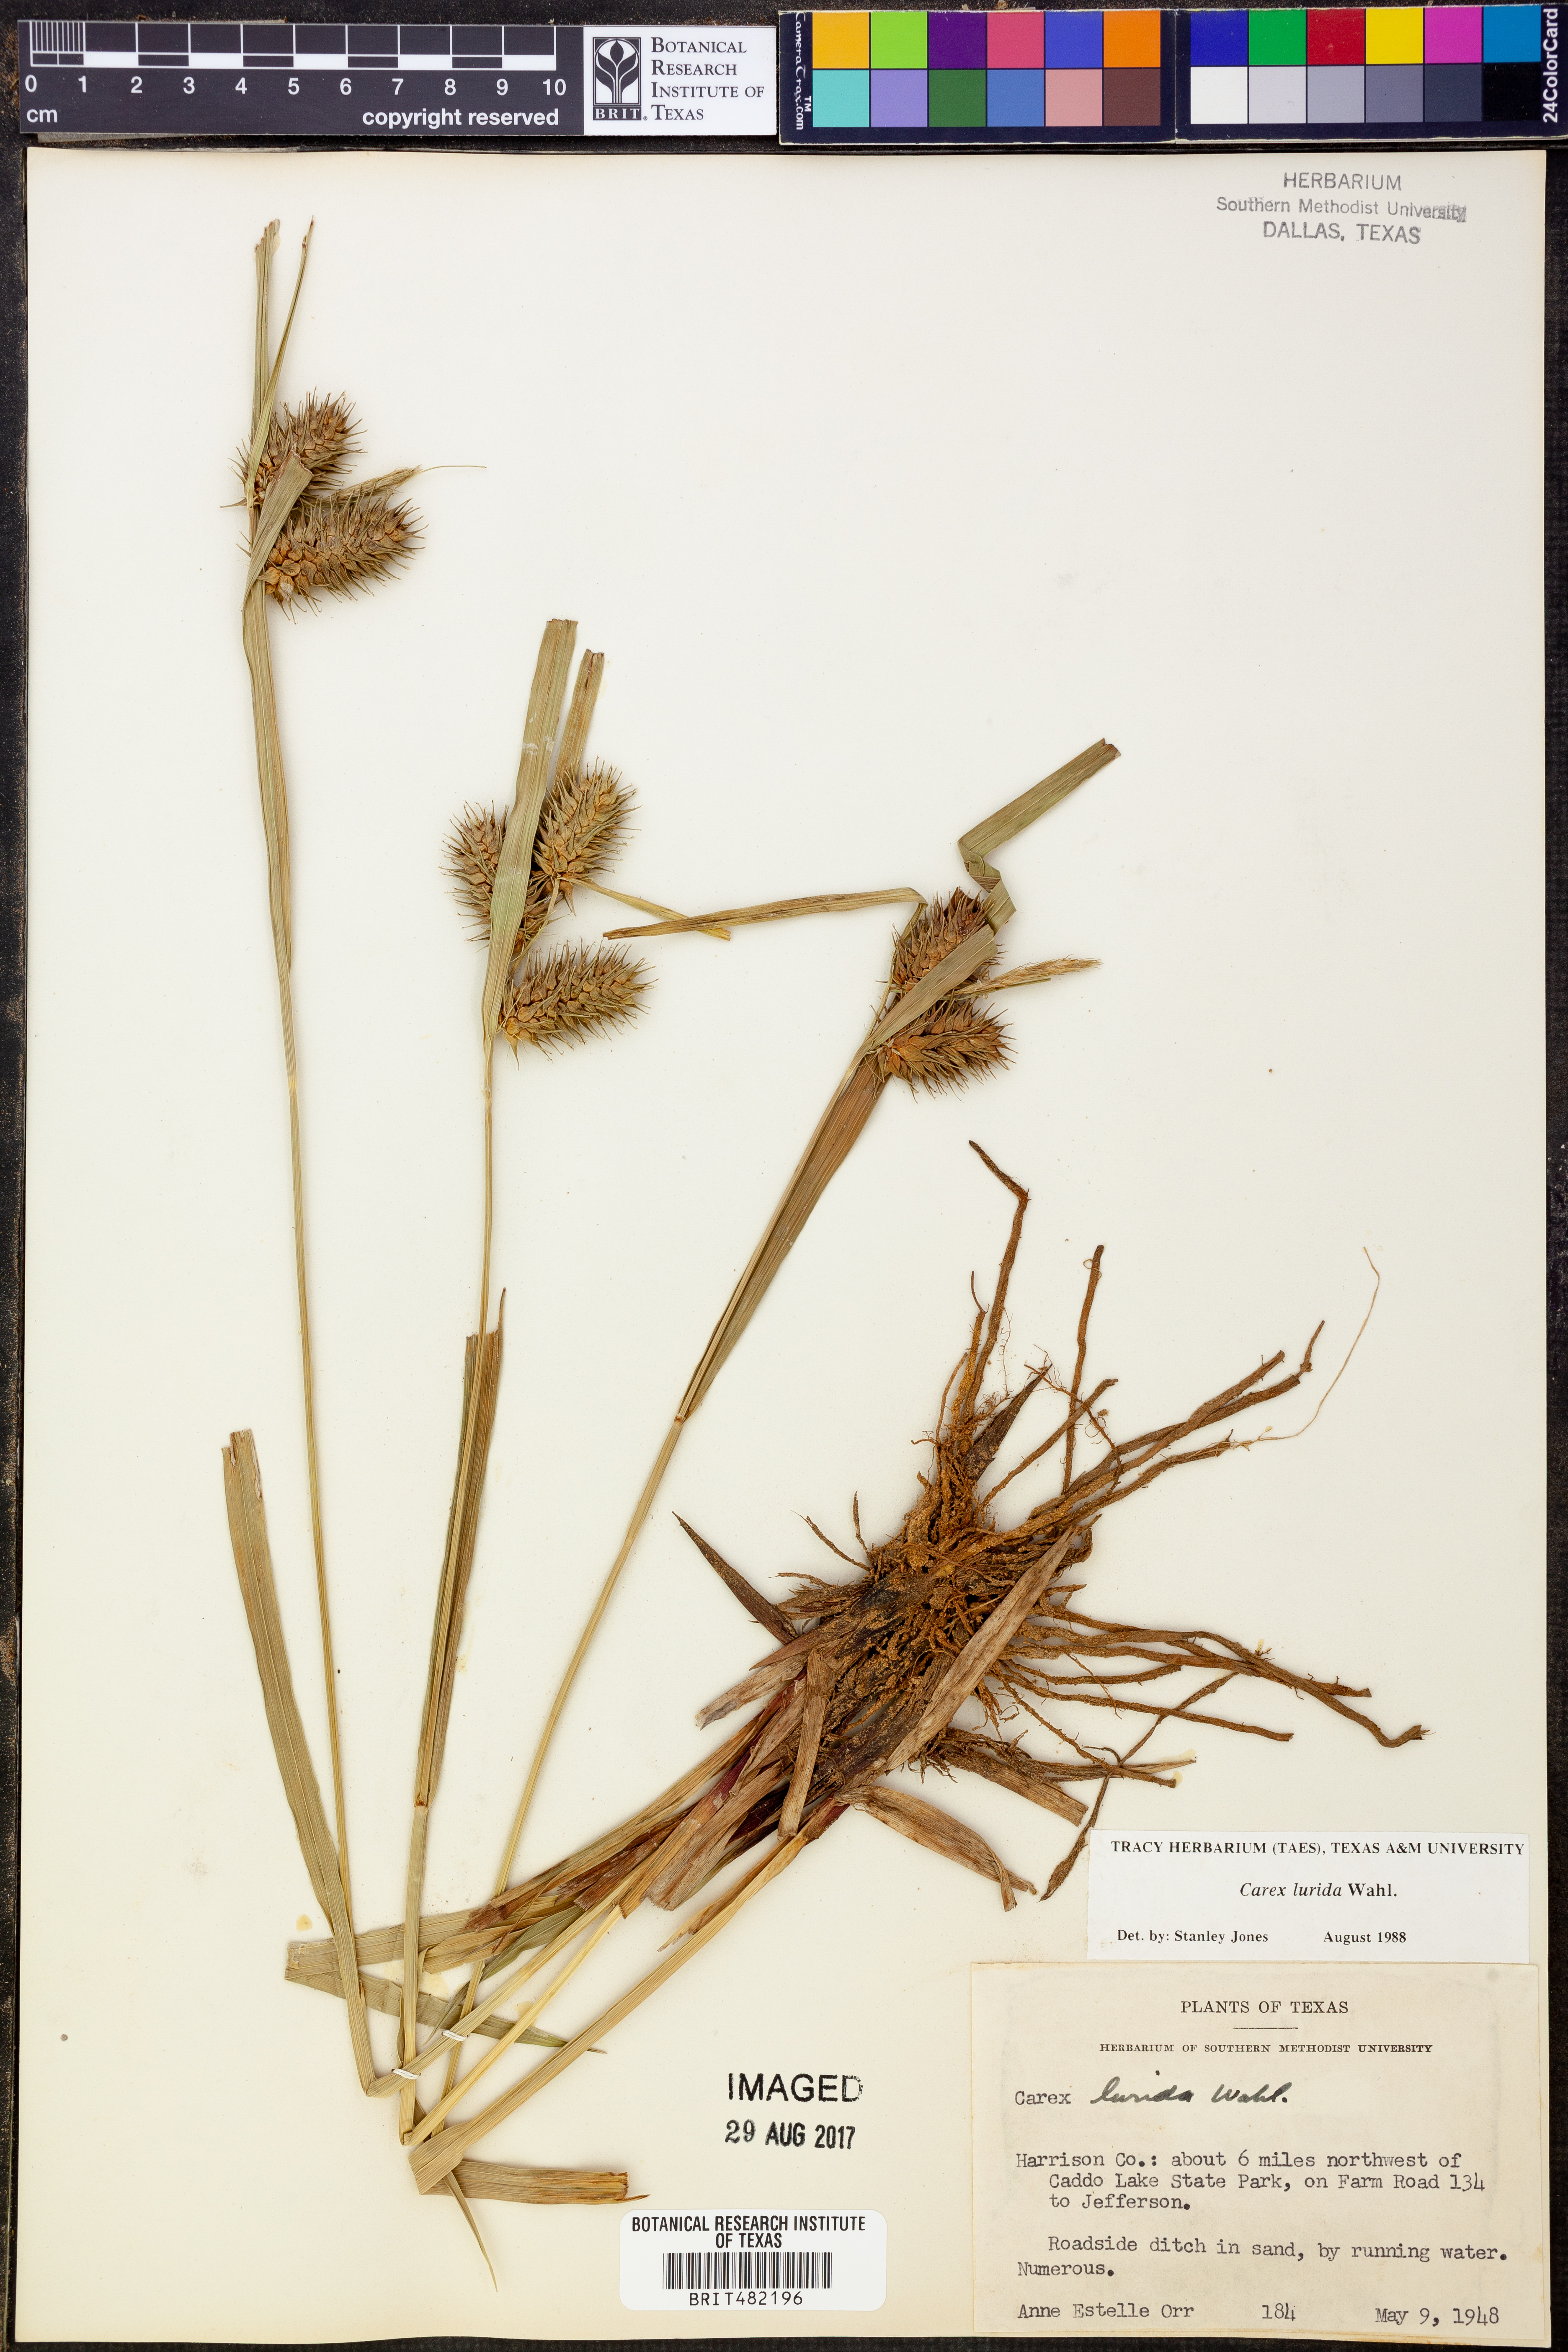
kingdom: Plantae
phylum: Tracheophyta
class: Liliopsida
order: Poales
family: Cyperaceae
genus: Carex
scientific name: Carex lurida
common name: Sallow sedge
